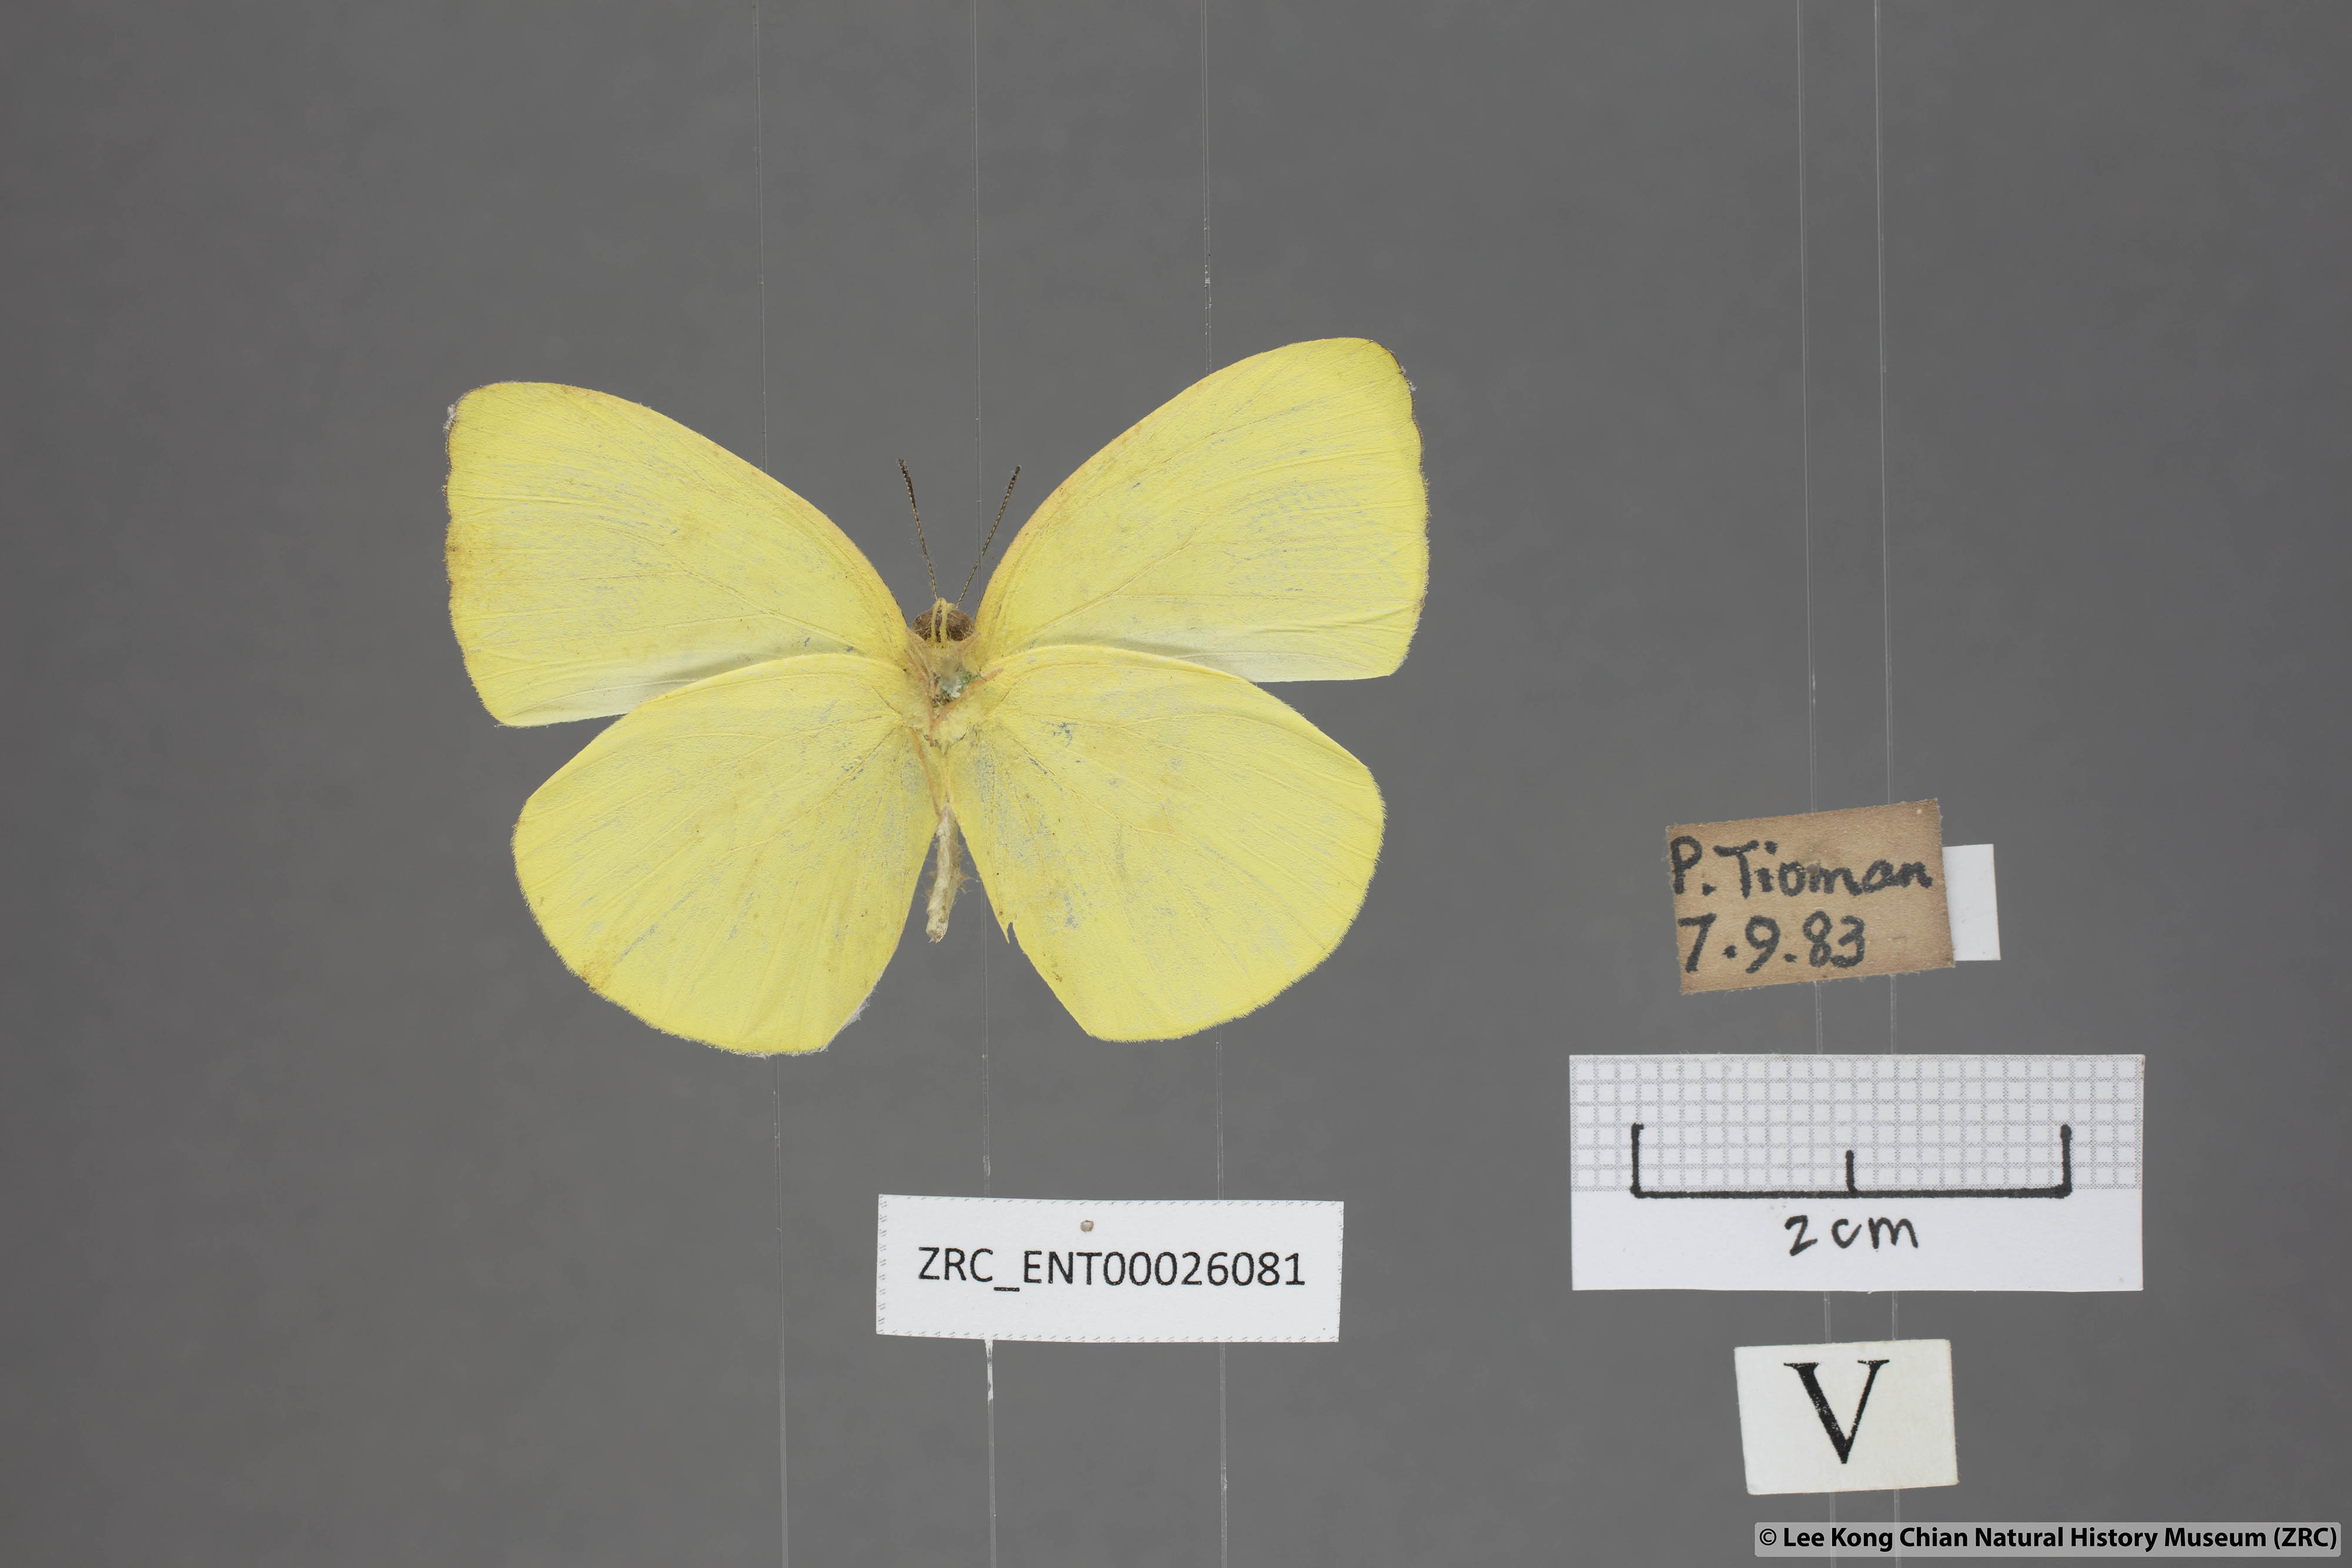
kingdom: Animalia
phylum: Arthropoda
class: Insecta
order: Lepidoptera
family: Pieridae
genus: Gandaca
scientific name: Gandaca harina
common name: Tree yellow
